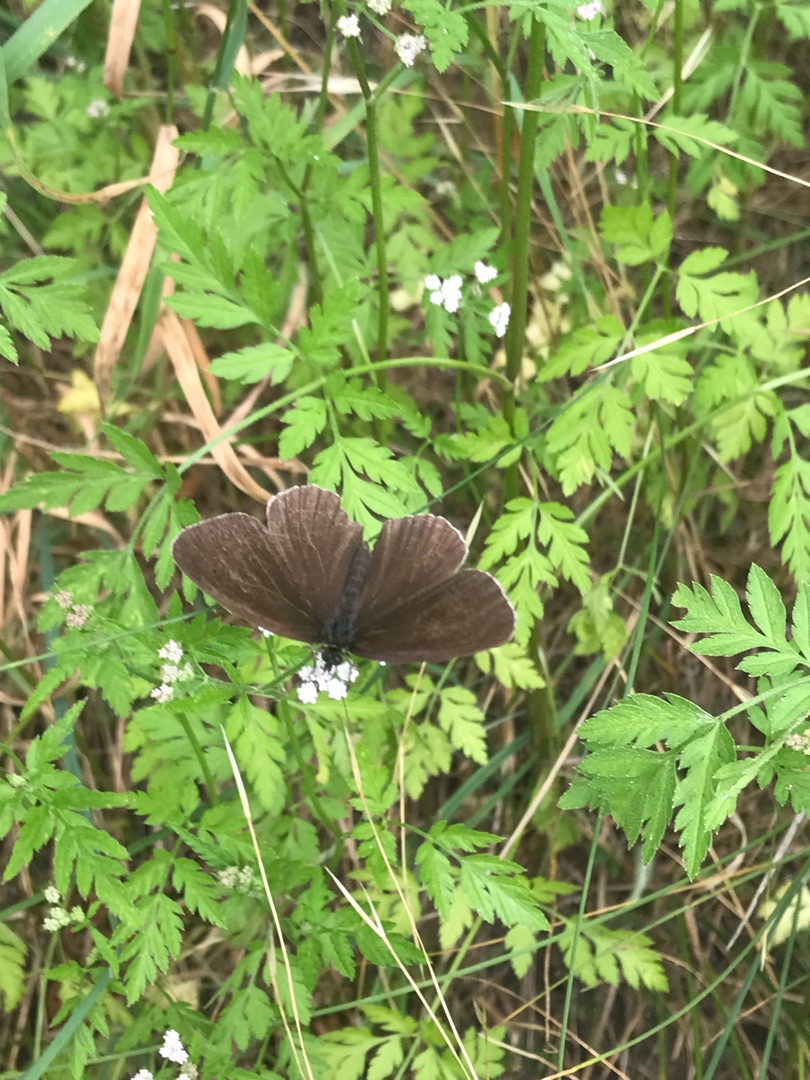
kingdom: Animalia
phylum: Arthropoda
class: Insecta
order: Lepidoptera
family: Nymphalidae
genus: Aphantopus
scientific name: Aphantopus hyperantus
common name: Engrandøje
